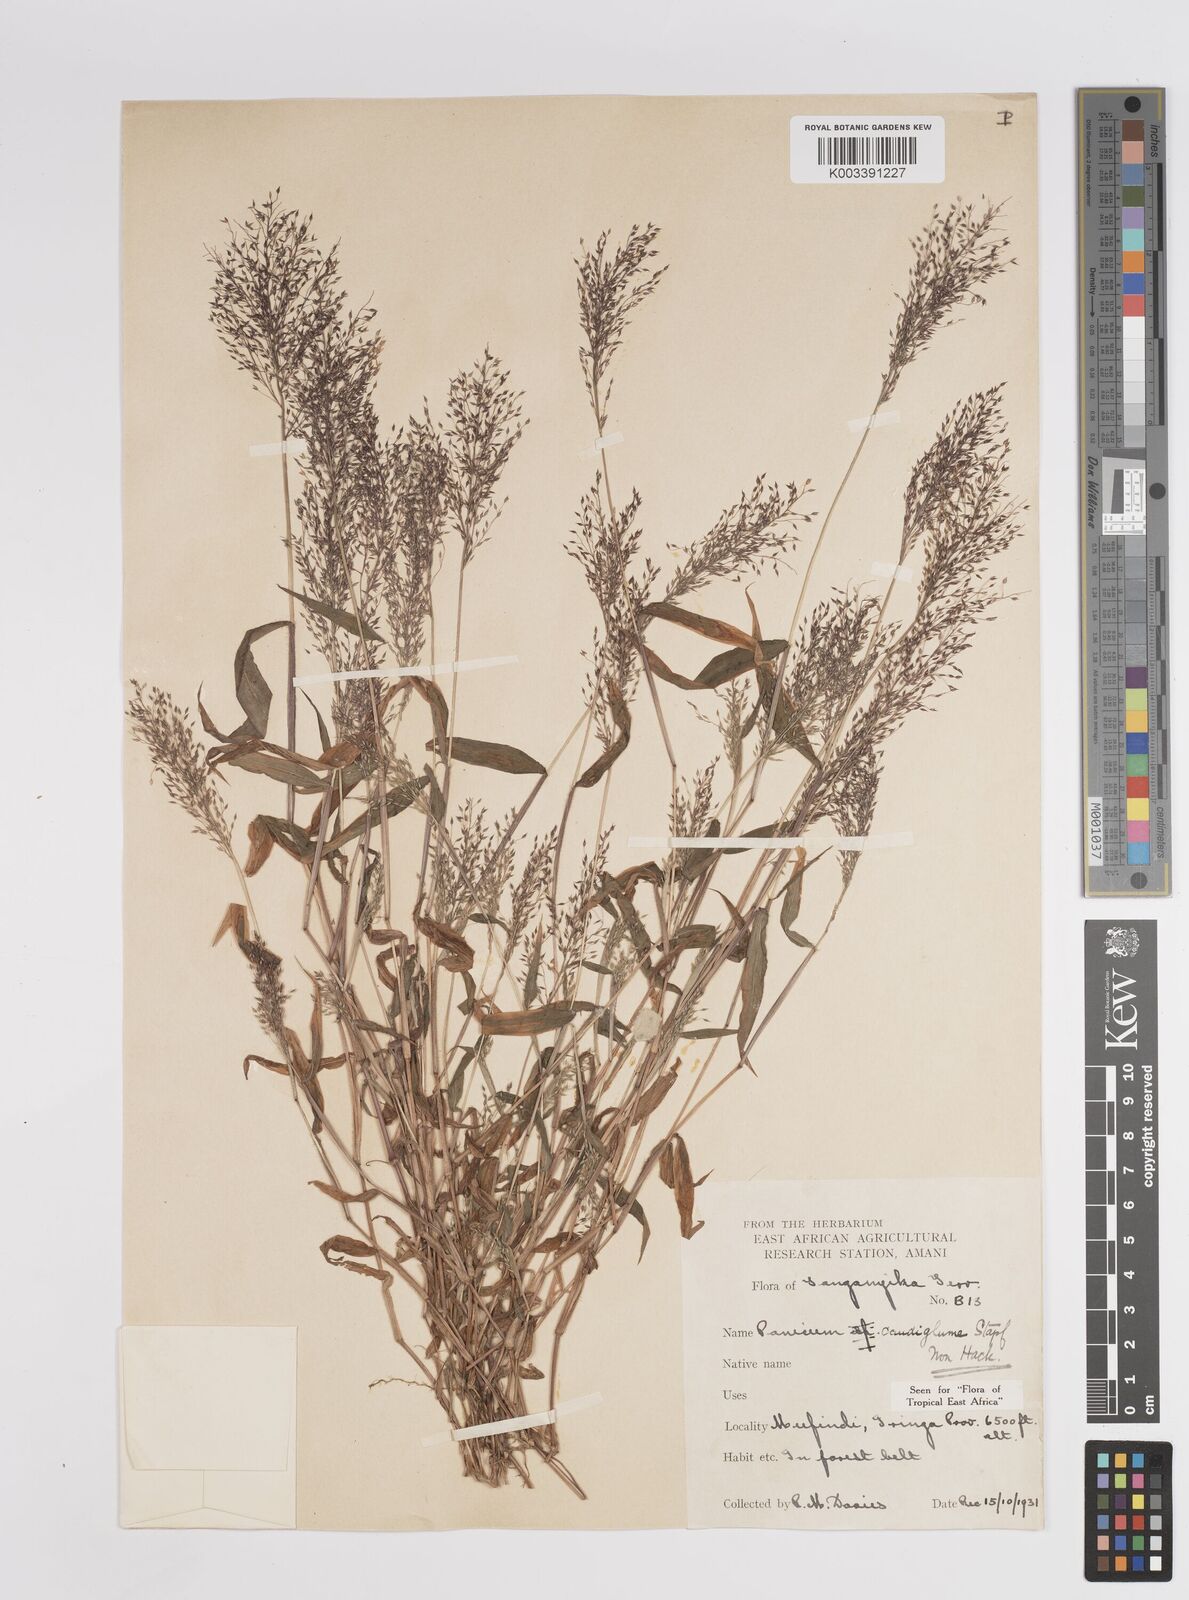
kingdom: Plantae
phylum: Tracheophyta
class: Liliopsida
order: Poales
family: Poaceae
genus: Panicum
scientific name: Panicum delicatulum
